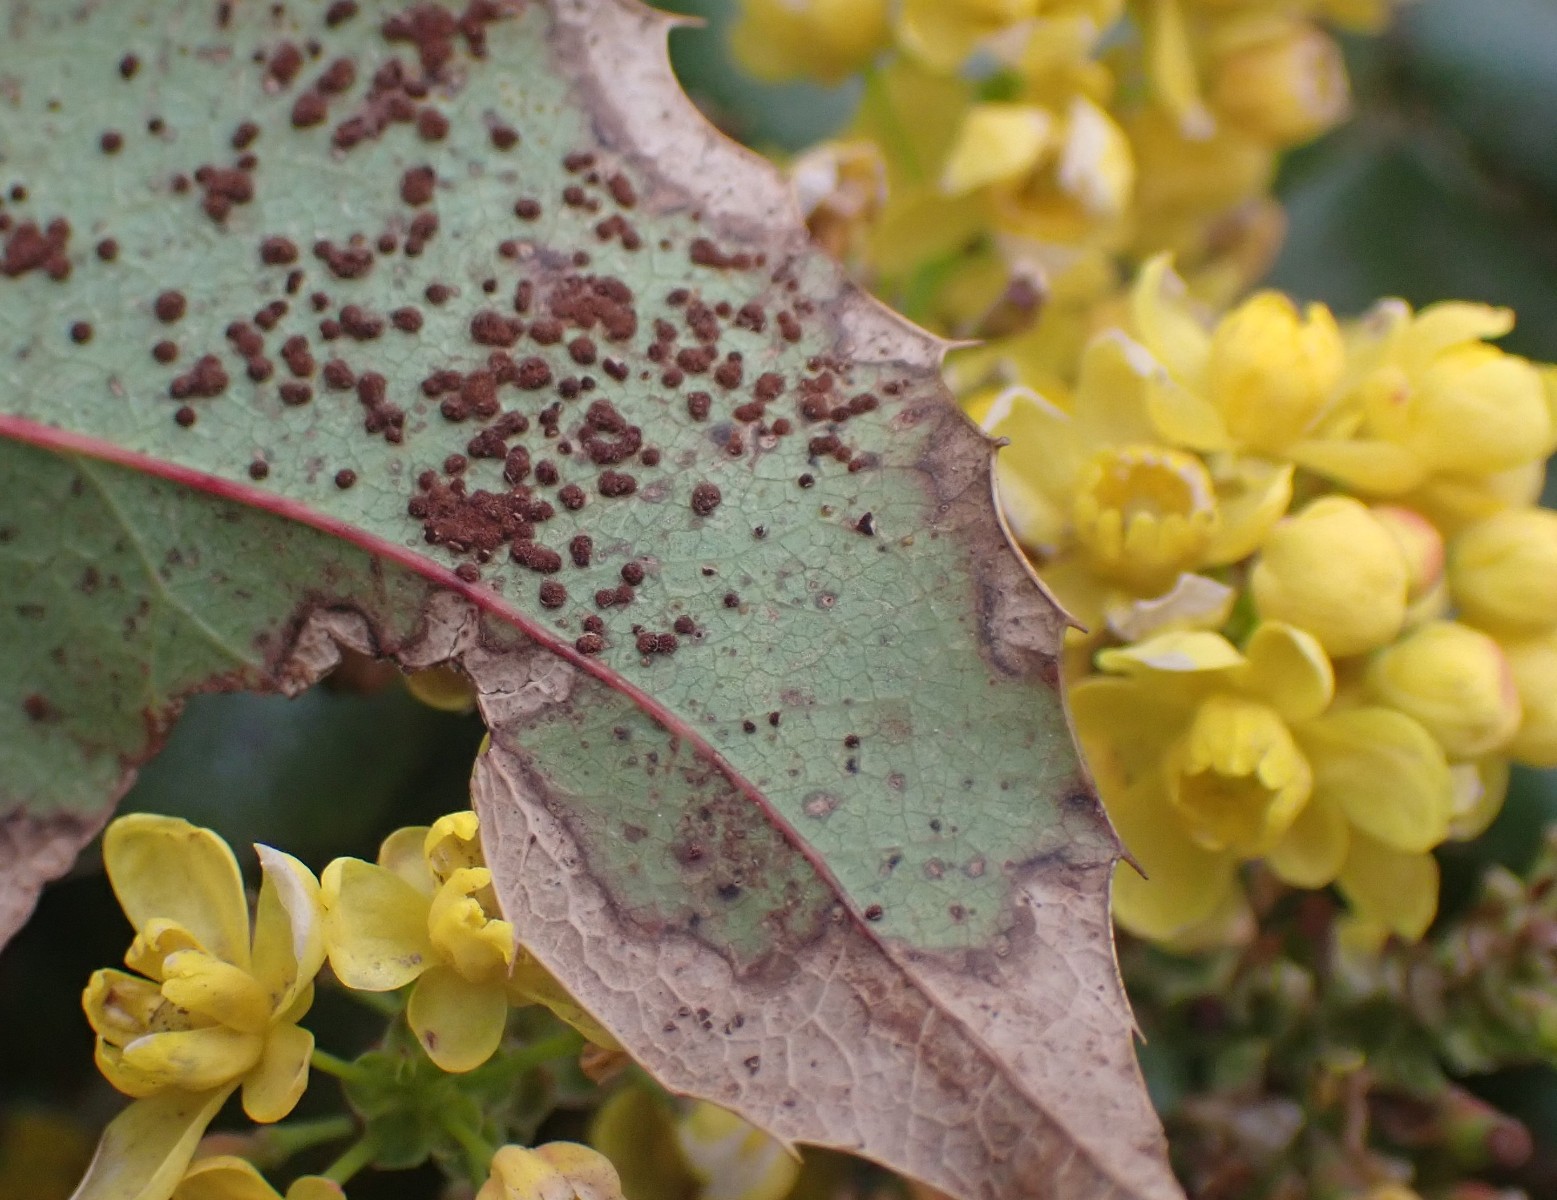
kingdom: Fungi
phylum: Basidiomycota
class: Pucciniomycetes
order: Pucciniales
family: Pucciniaceae
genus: Cumminsiella
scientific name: Cumminsiella mirabilissima
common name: mahonierust
